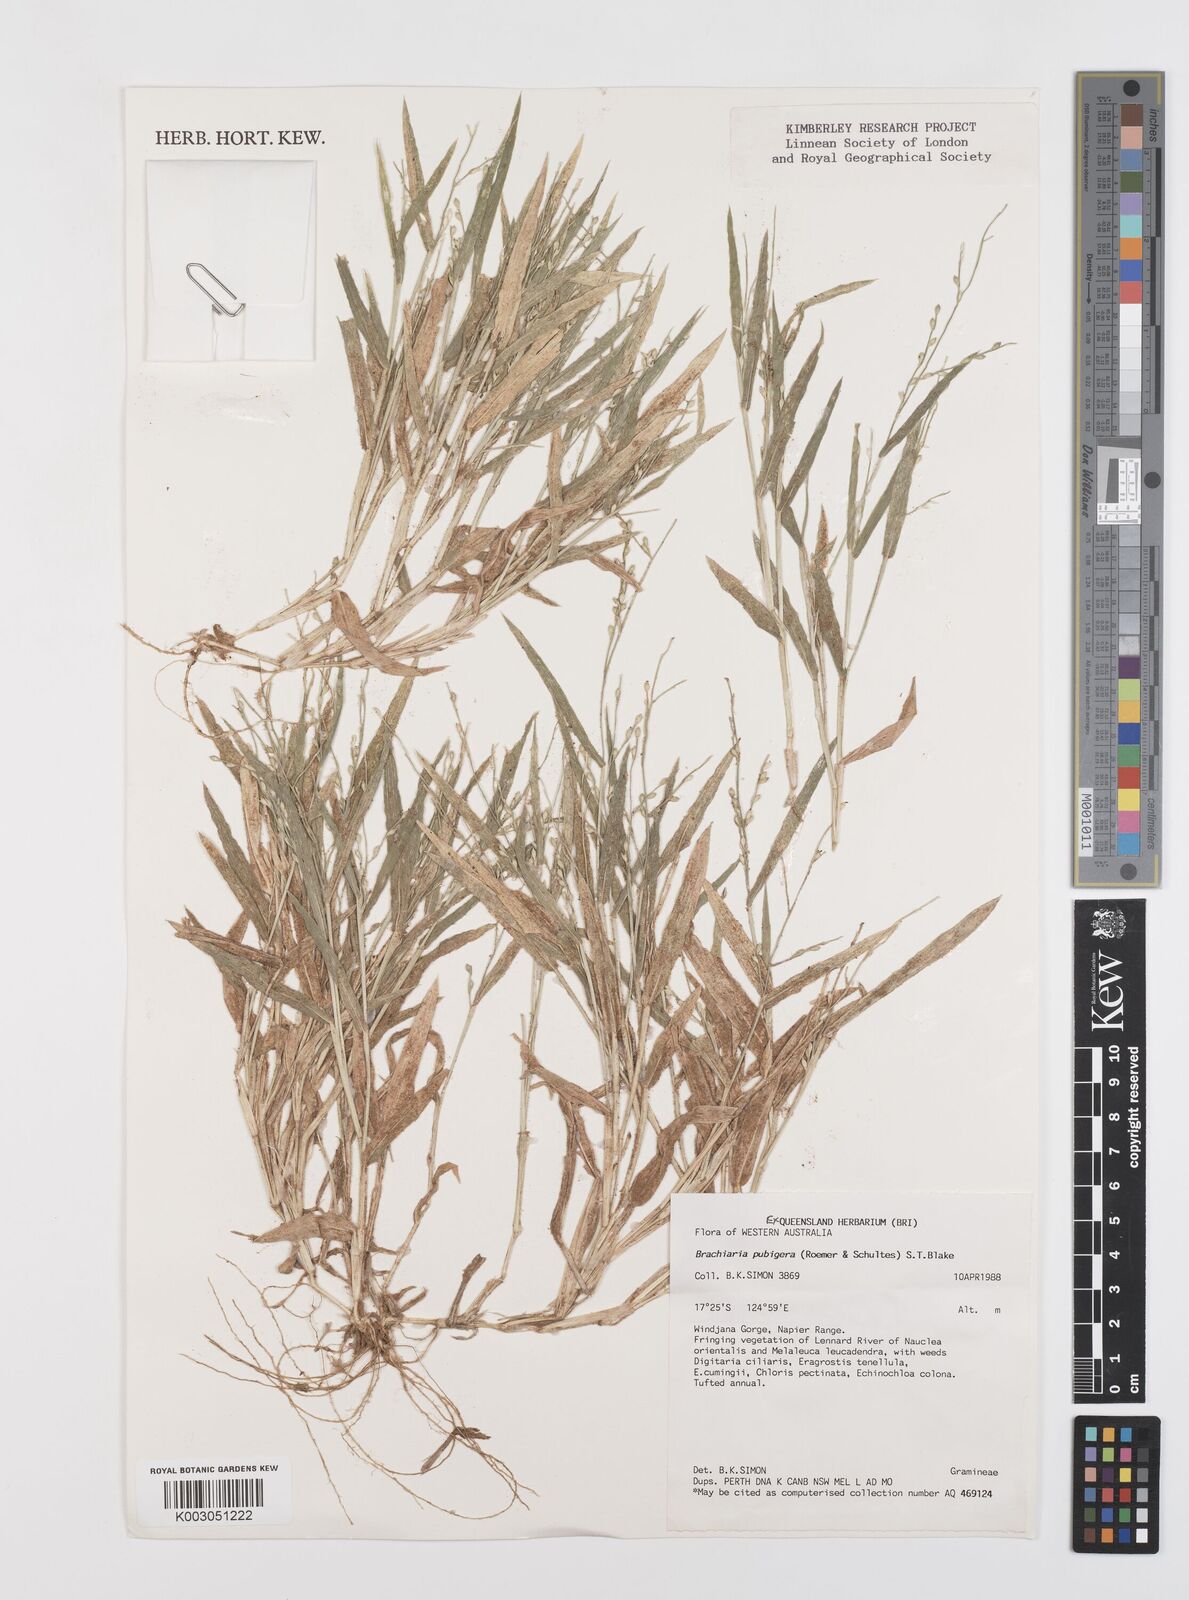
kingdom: Plantae
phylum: Tracheophyta
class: Liliopsida
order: Poales
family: Poaceae
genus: Urochloa
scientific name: Urochloa praetervisa
